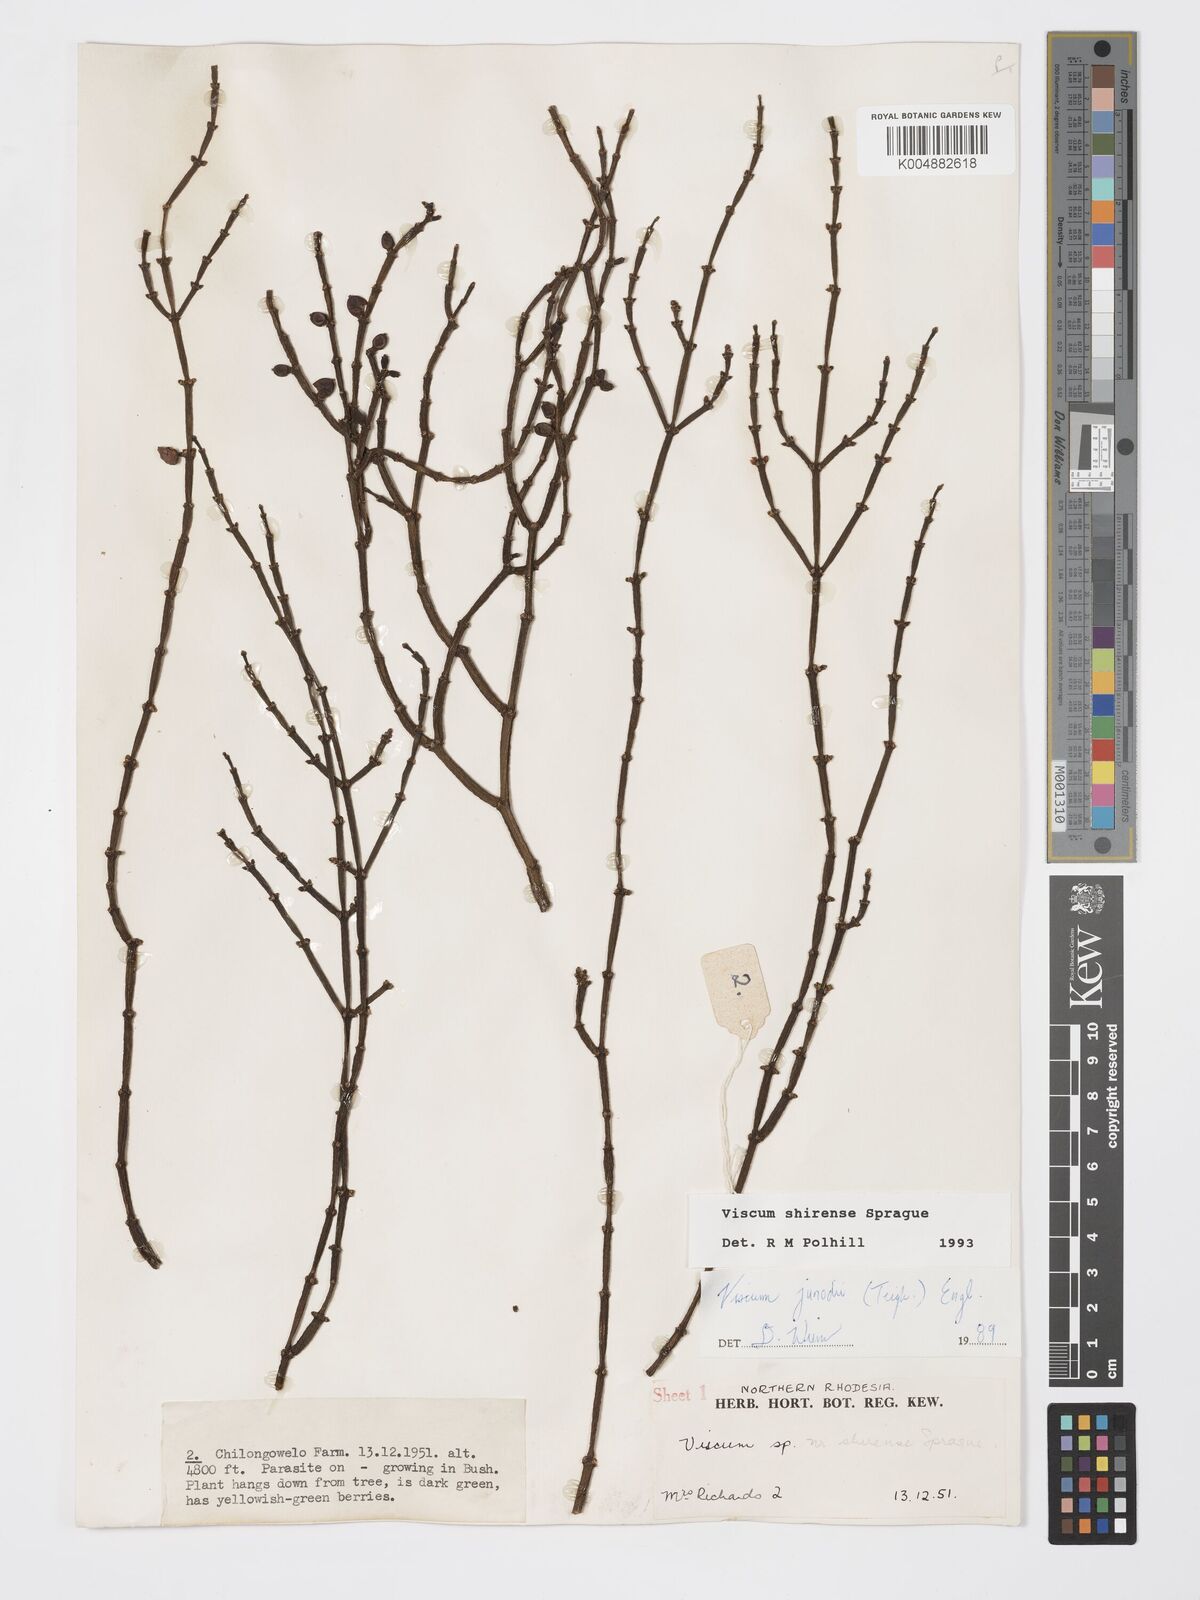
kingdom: Plantae
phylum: Tracheophyta
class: Magnoliopsida
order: Santalales
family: Viscaceae
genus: Viscum
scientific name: Viscum junodii
